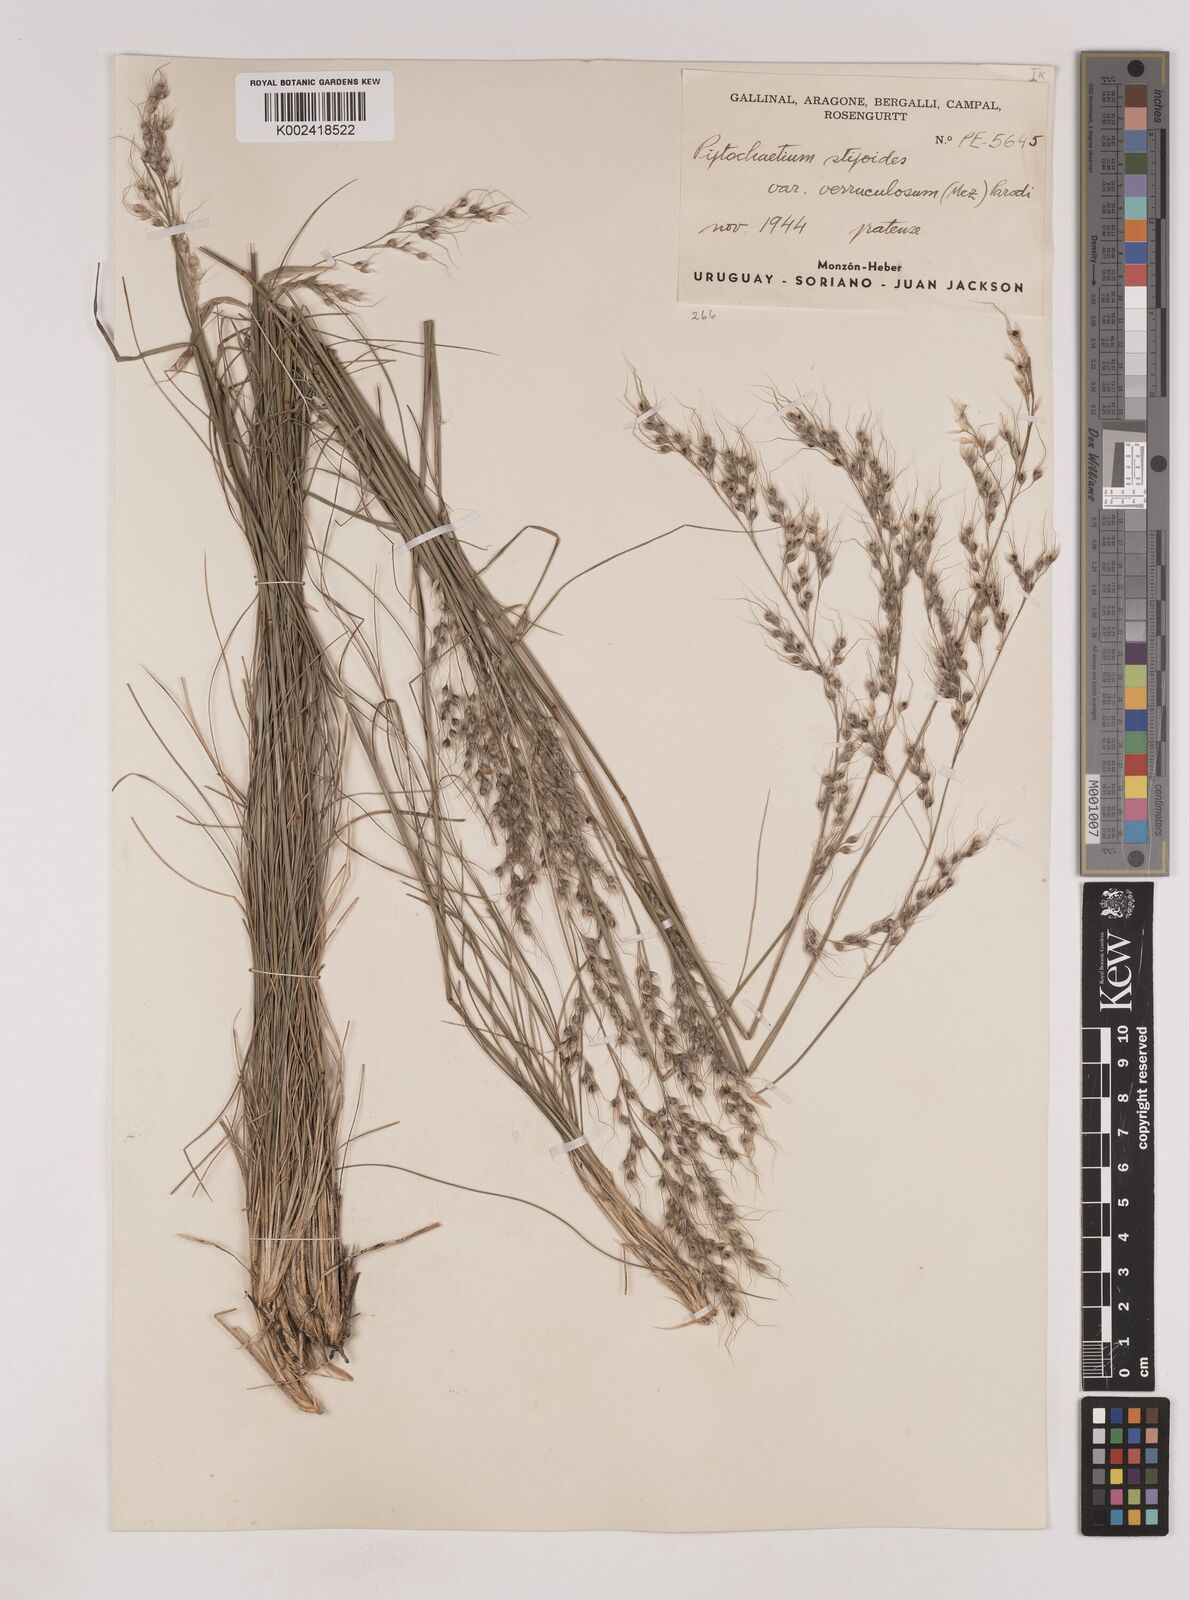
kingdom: Plantae
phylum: Tracheophyta
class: Liliopsida
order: Poales
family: Poaceae
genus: Piptochaetium
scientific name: Piptochaetium stipoides
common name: Purple speargrass
